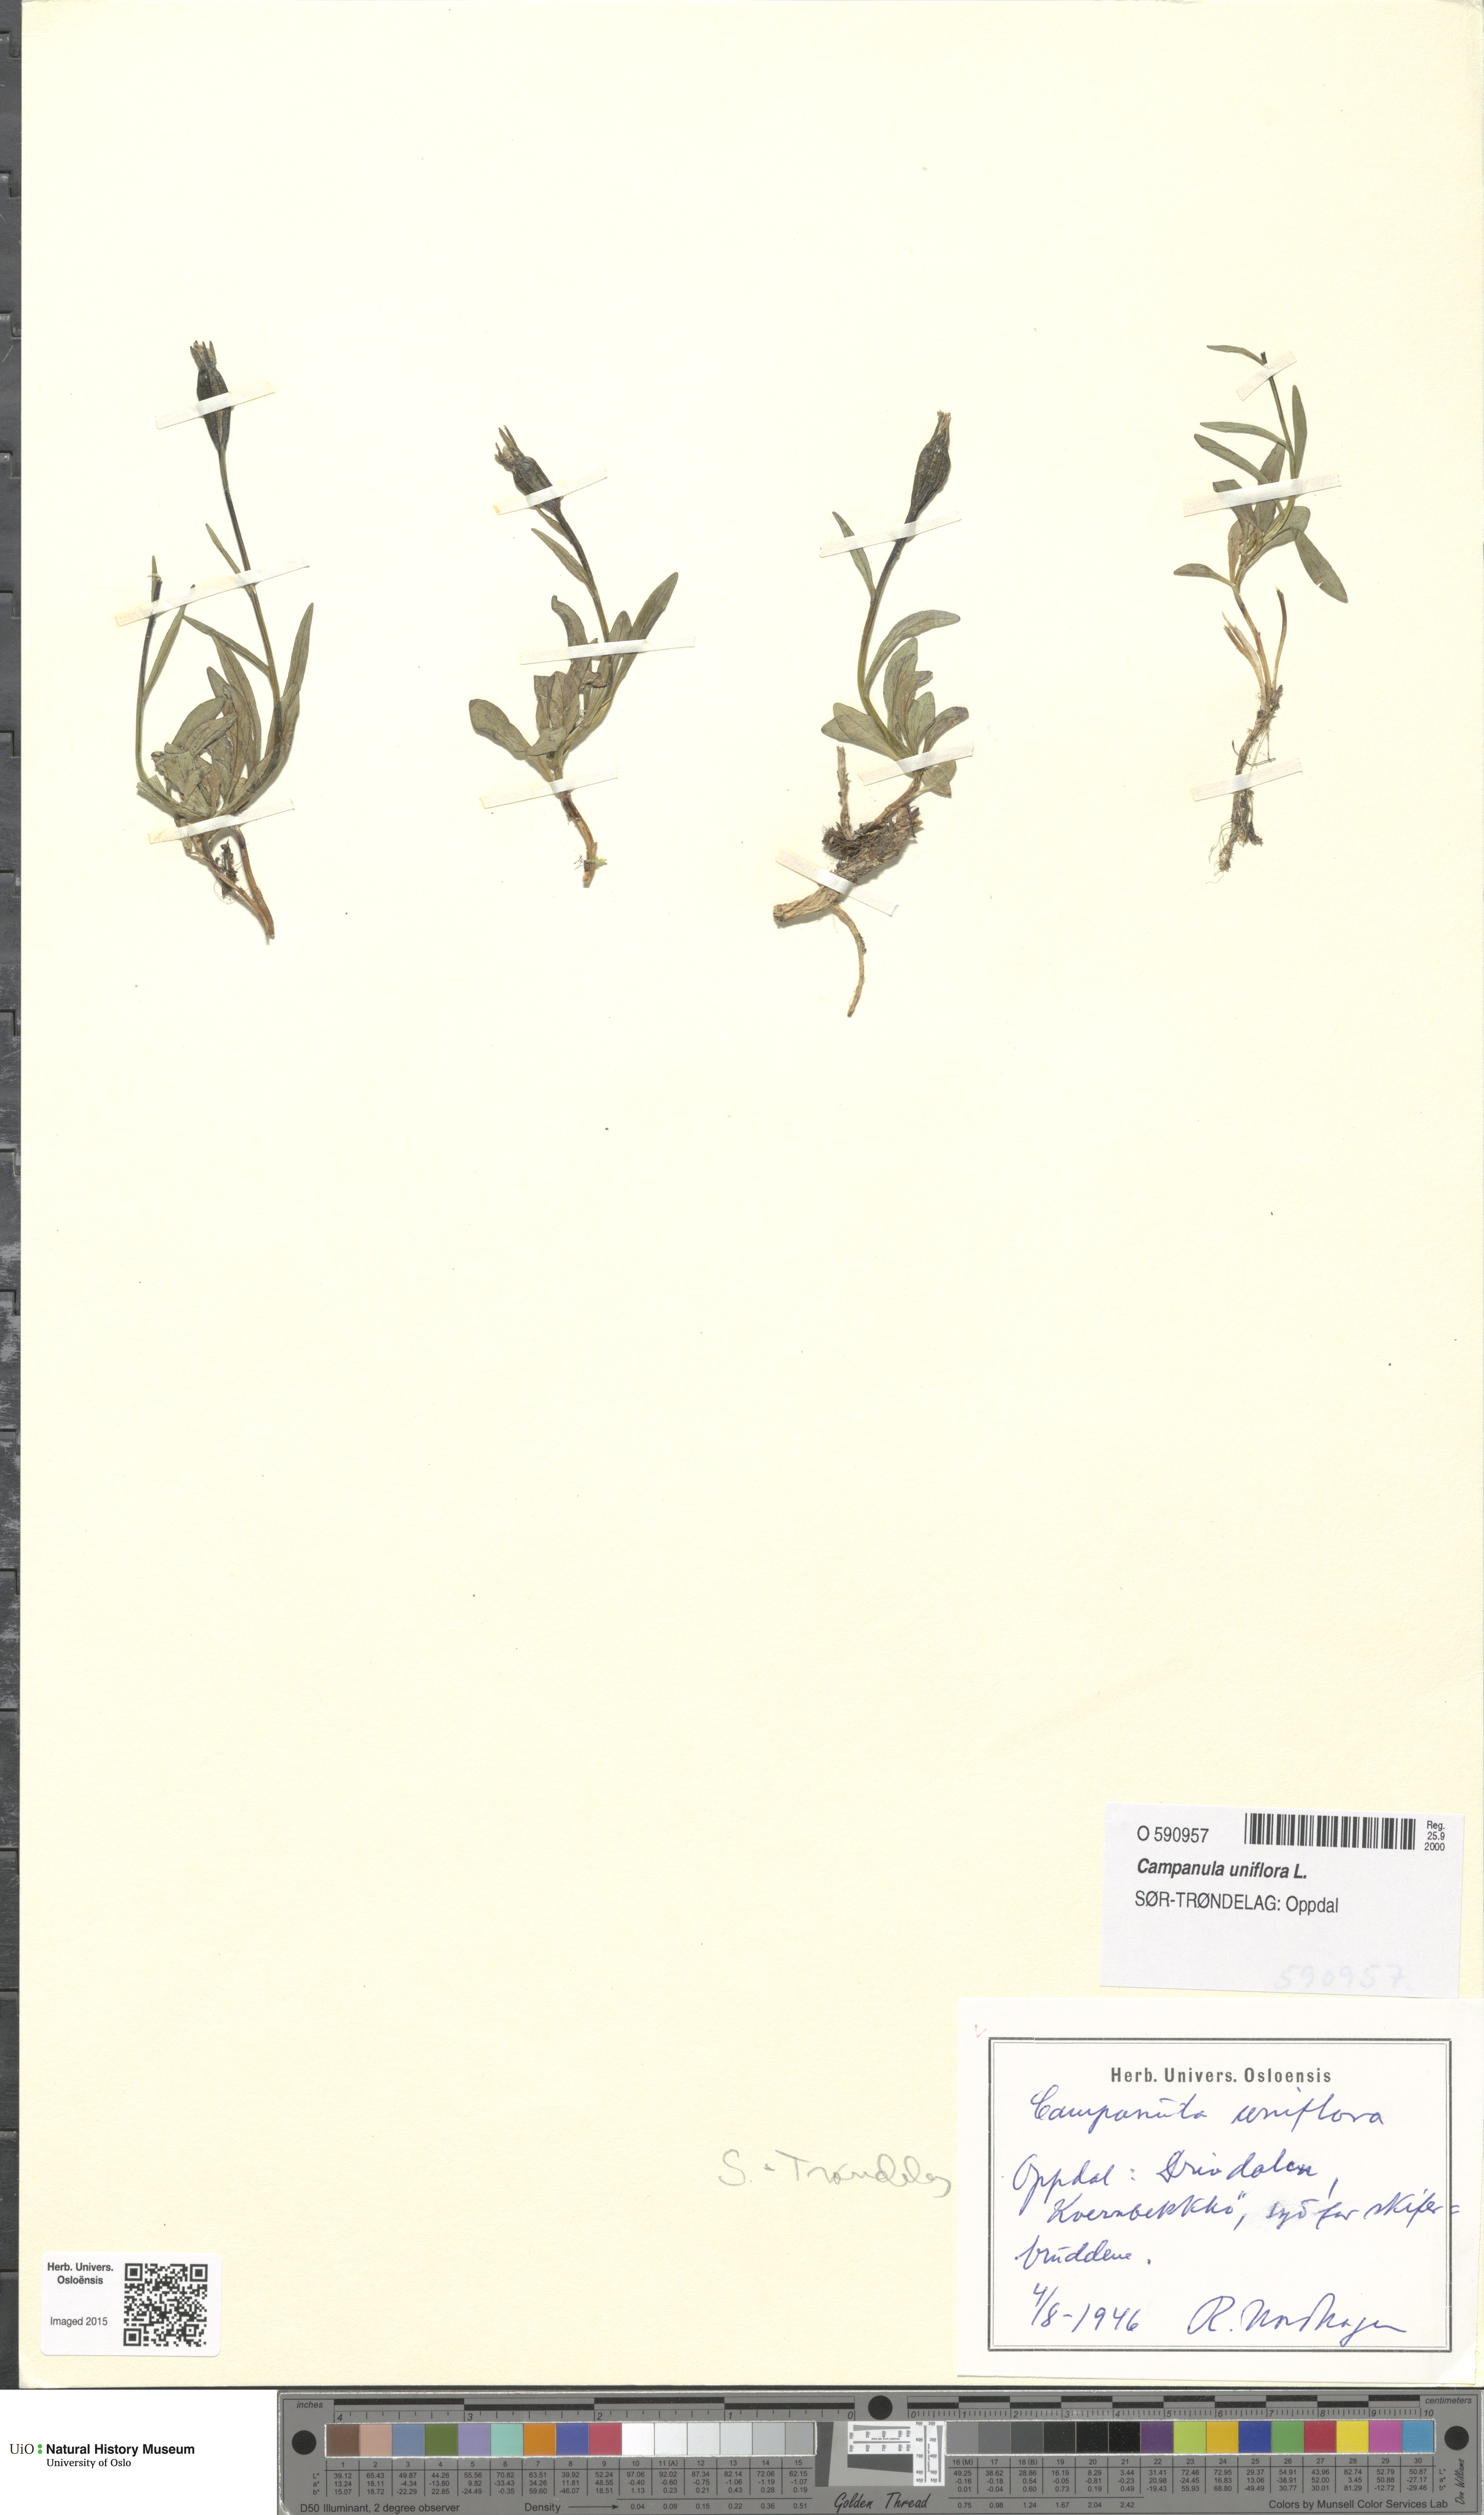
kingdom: Plantae
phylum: Tracheophyta
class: Magnoliopsida
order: Asterales
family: Campanulaceae
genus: Melanocalyx
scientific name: Melanocalyx uniflora
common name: Alpine harebell
